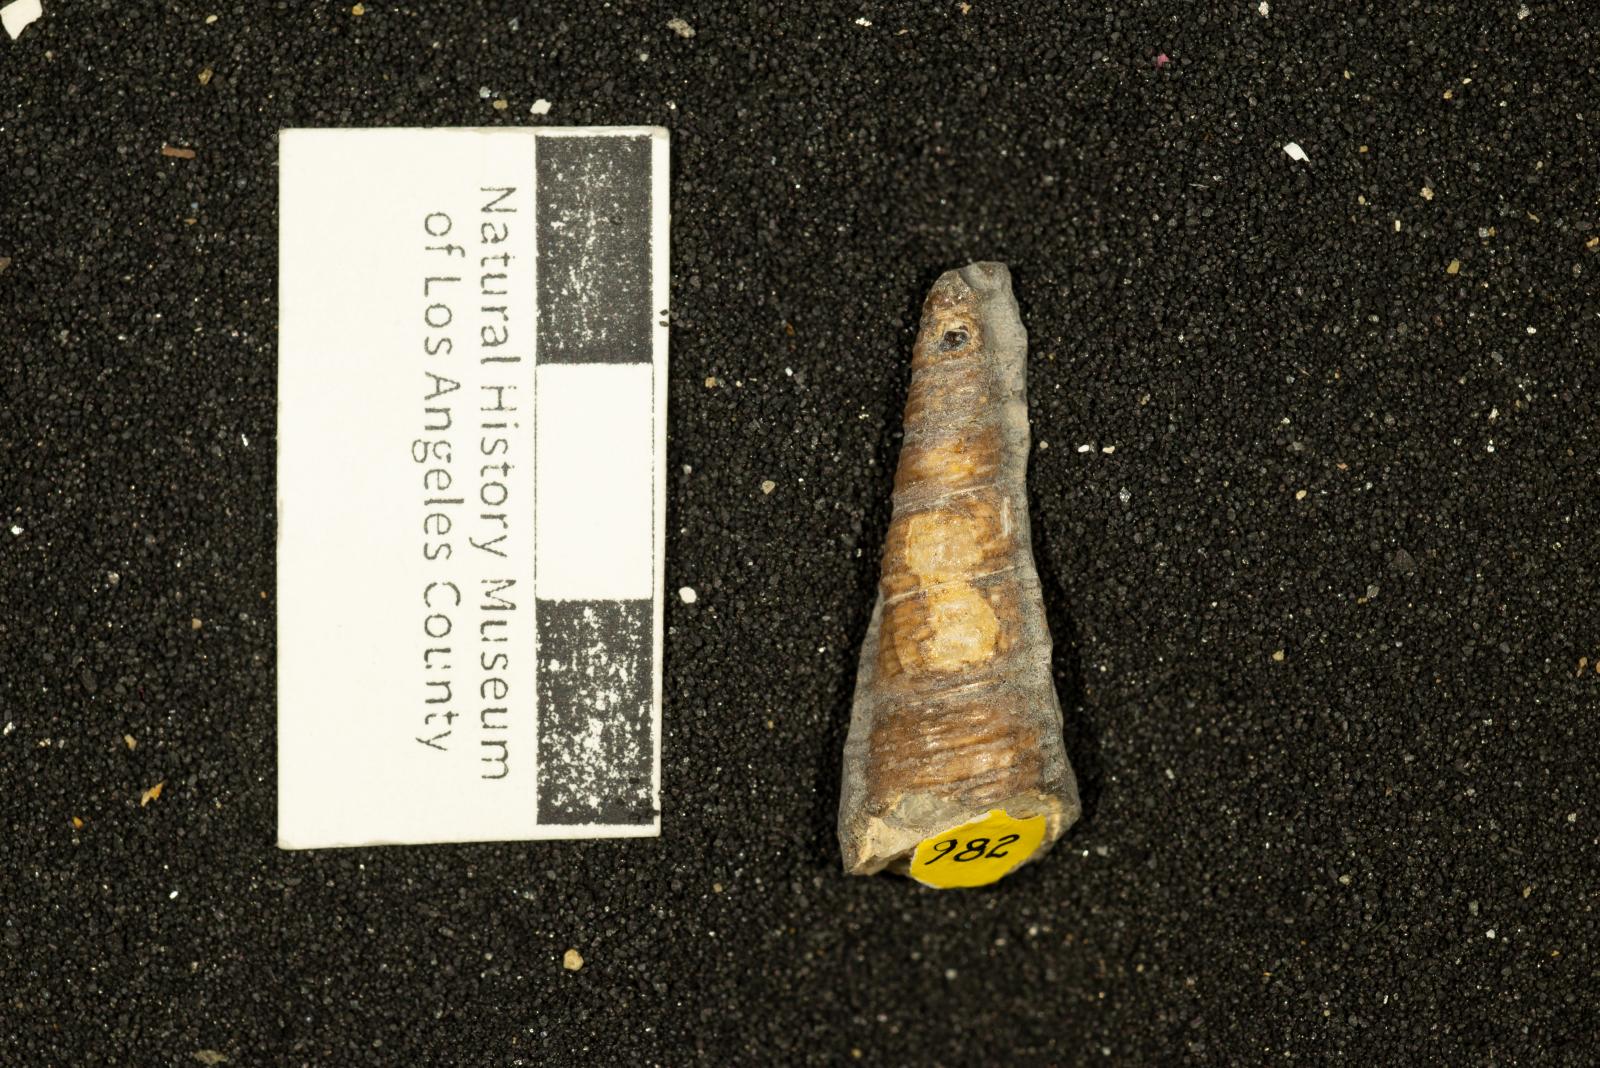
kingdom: Animalia
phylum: Mollusca
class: Gastropoda
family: Turritellidae
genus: Turritella
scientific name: Turritella chicoensis
